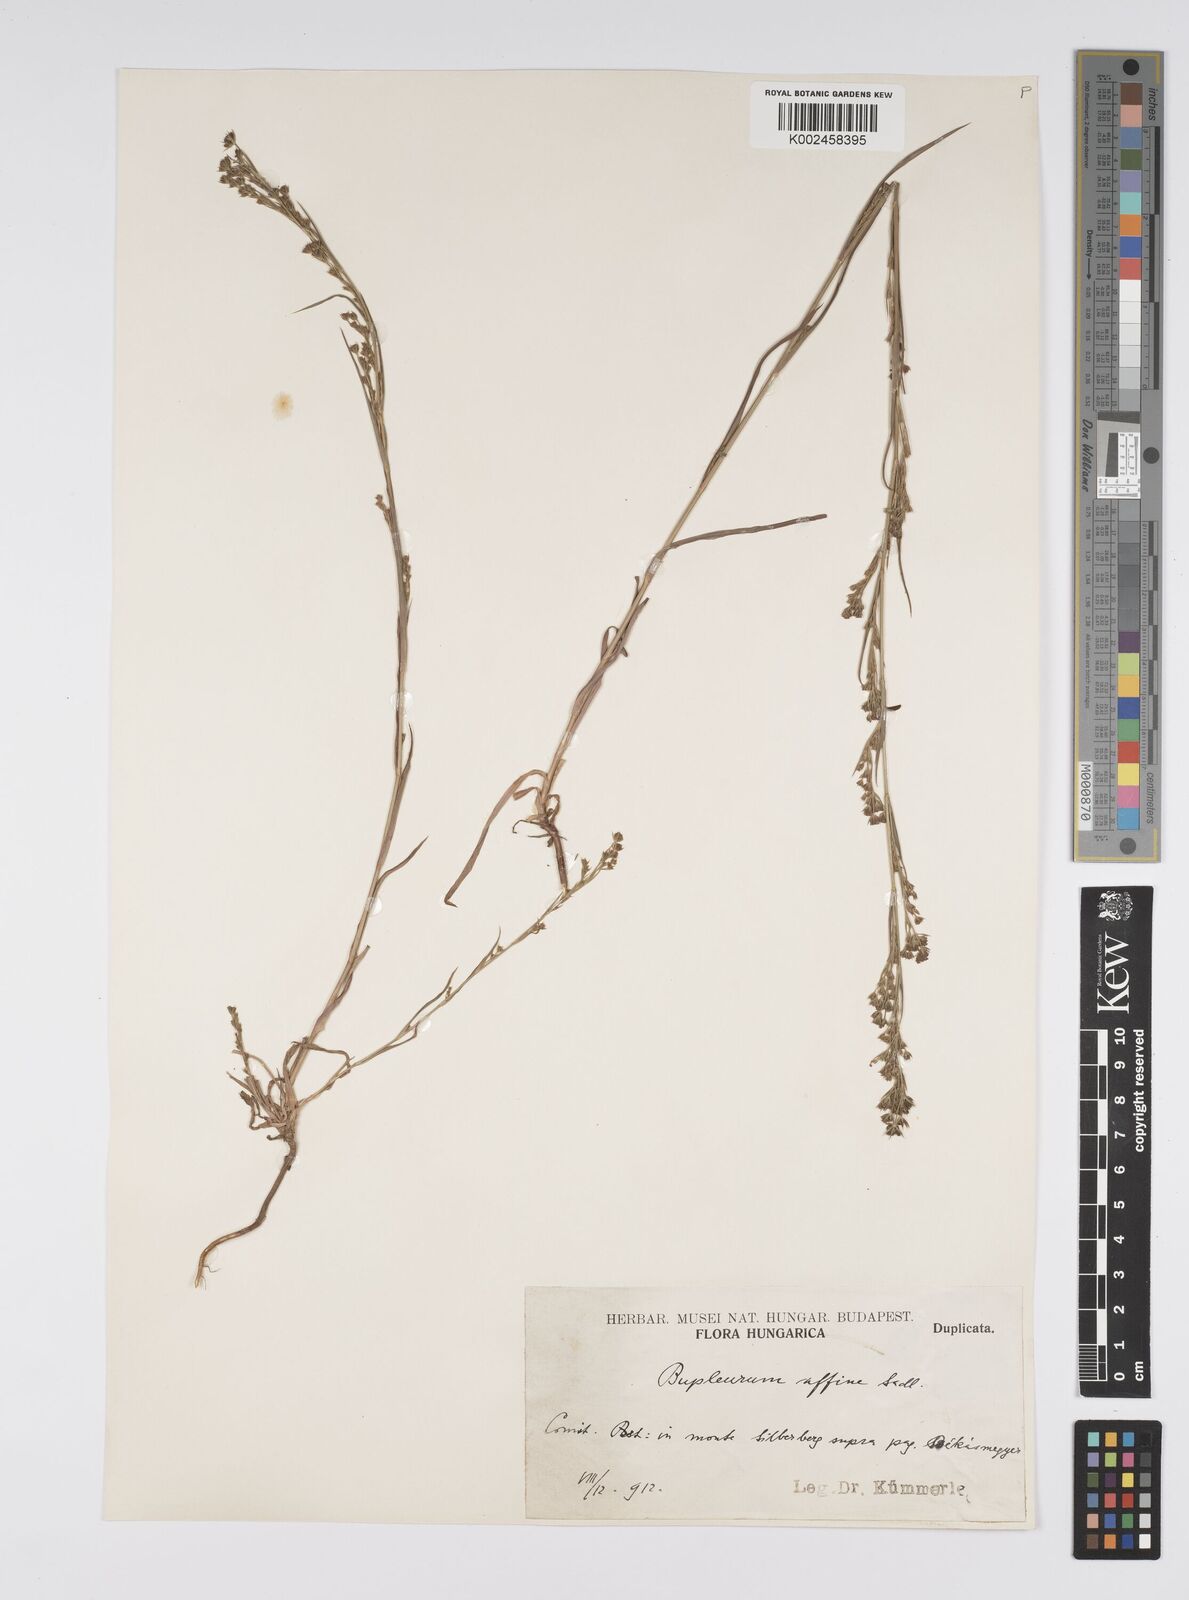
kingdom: Plantae
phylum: Tracheophyta
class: Magnoliopsida
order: Apiales
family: Apiaceae
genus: Bupleurum
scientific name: Bupleurum affine
